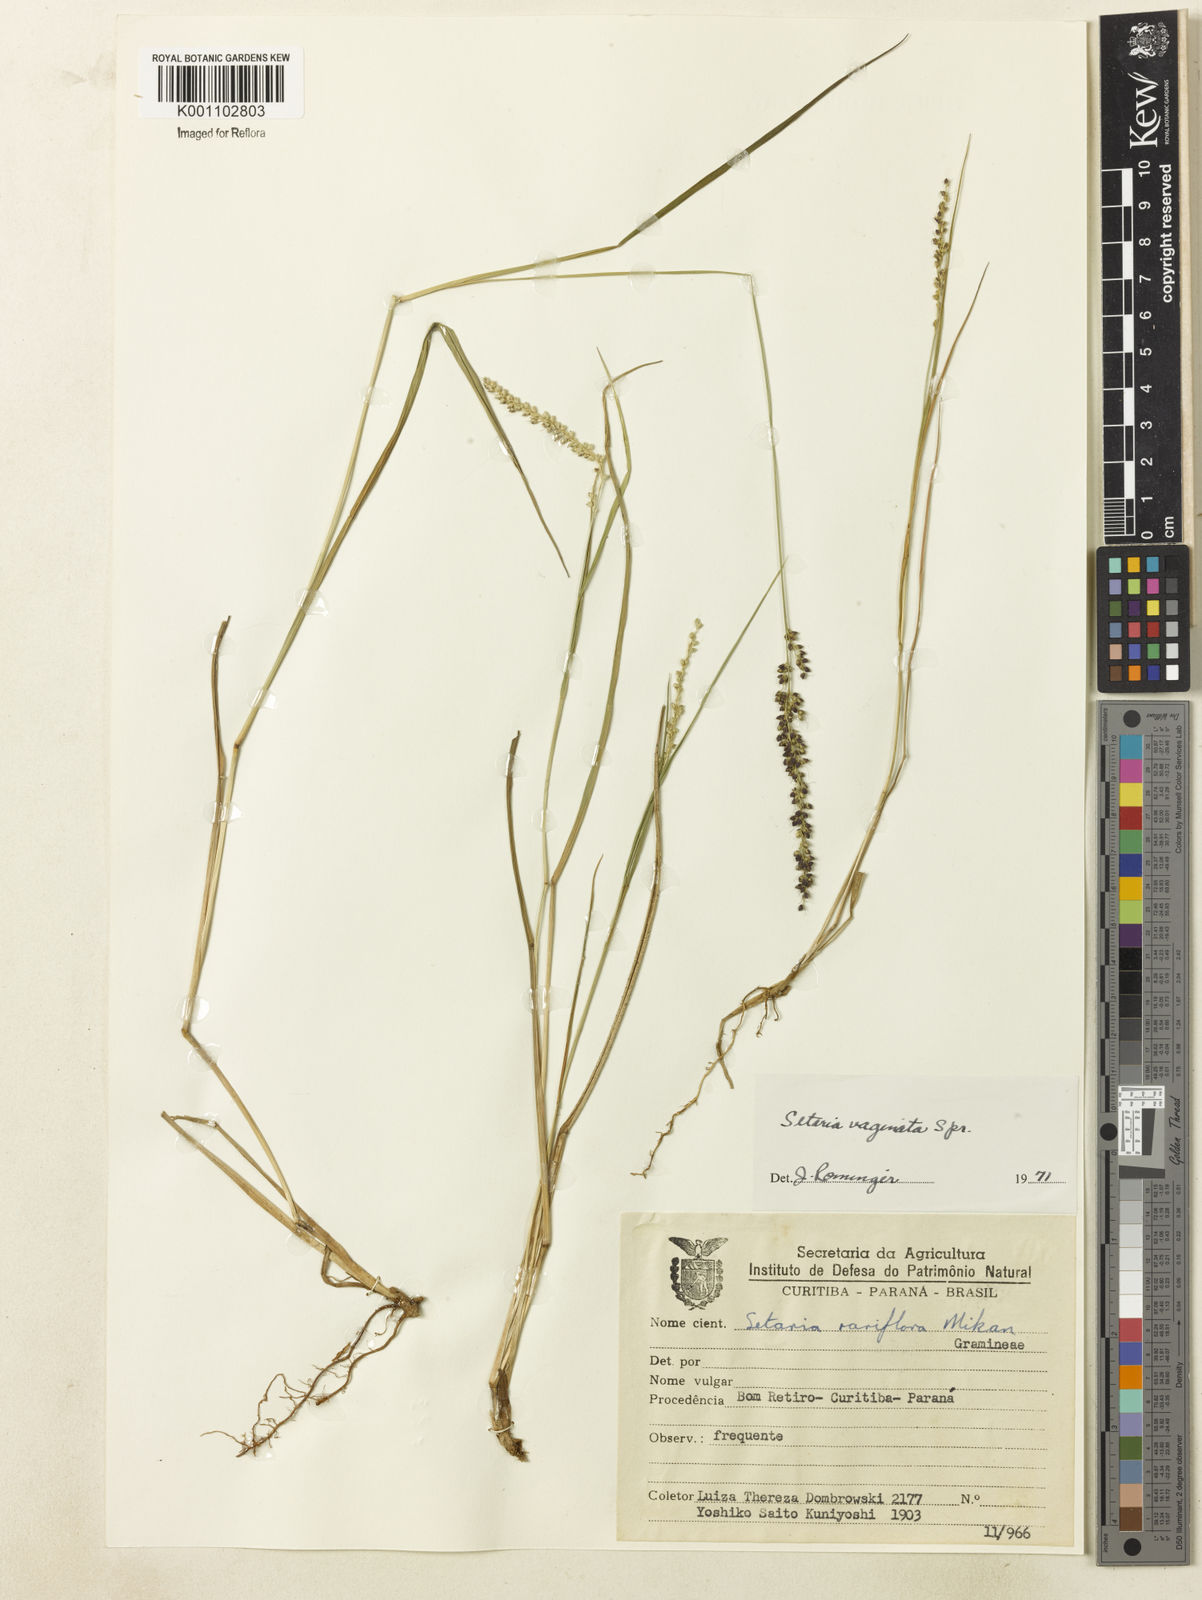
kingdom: Plantae
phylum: Tracheophyta
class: Liliopsida
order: Poales
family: Poaceae
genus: Setaria
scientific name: Setaria setosa
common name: West indies bristle grass
